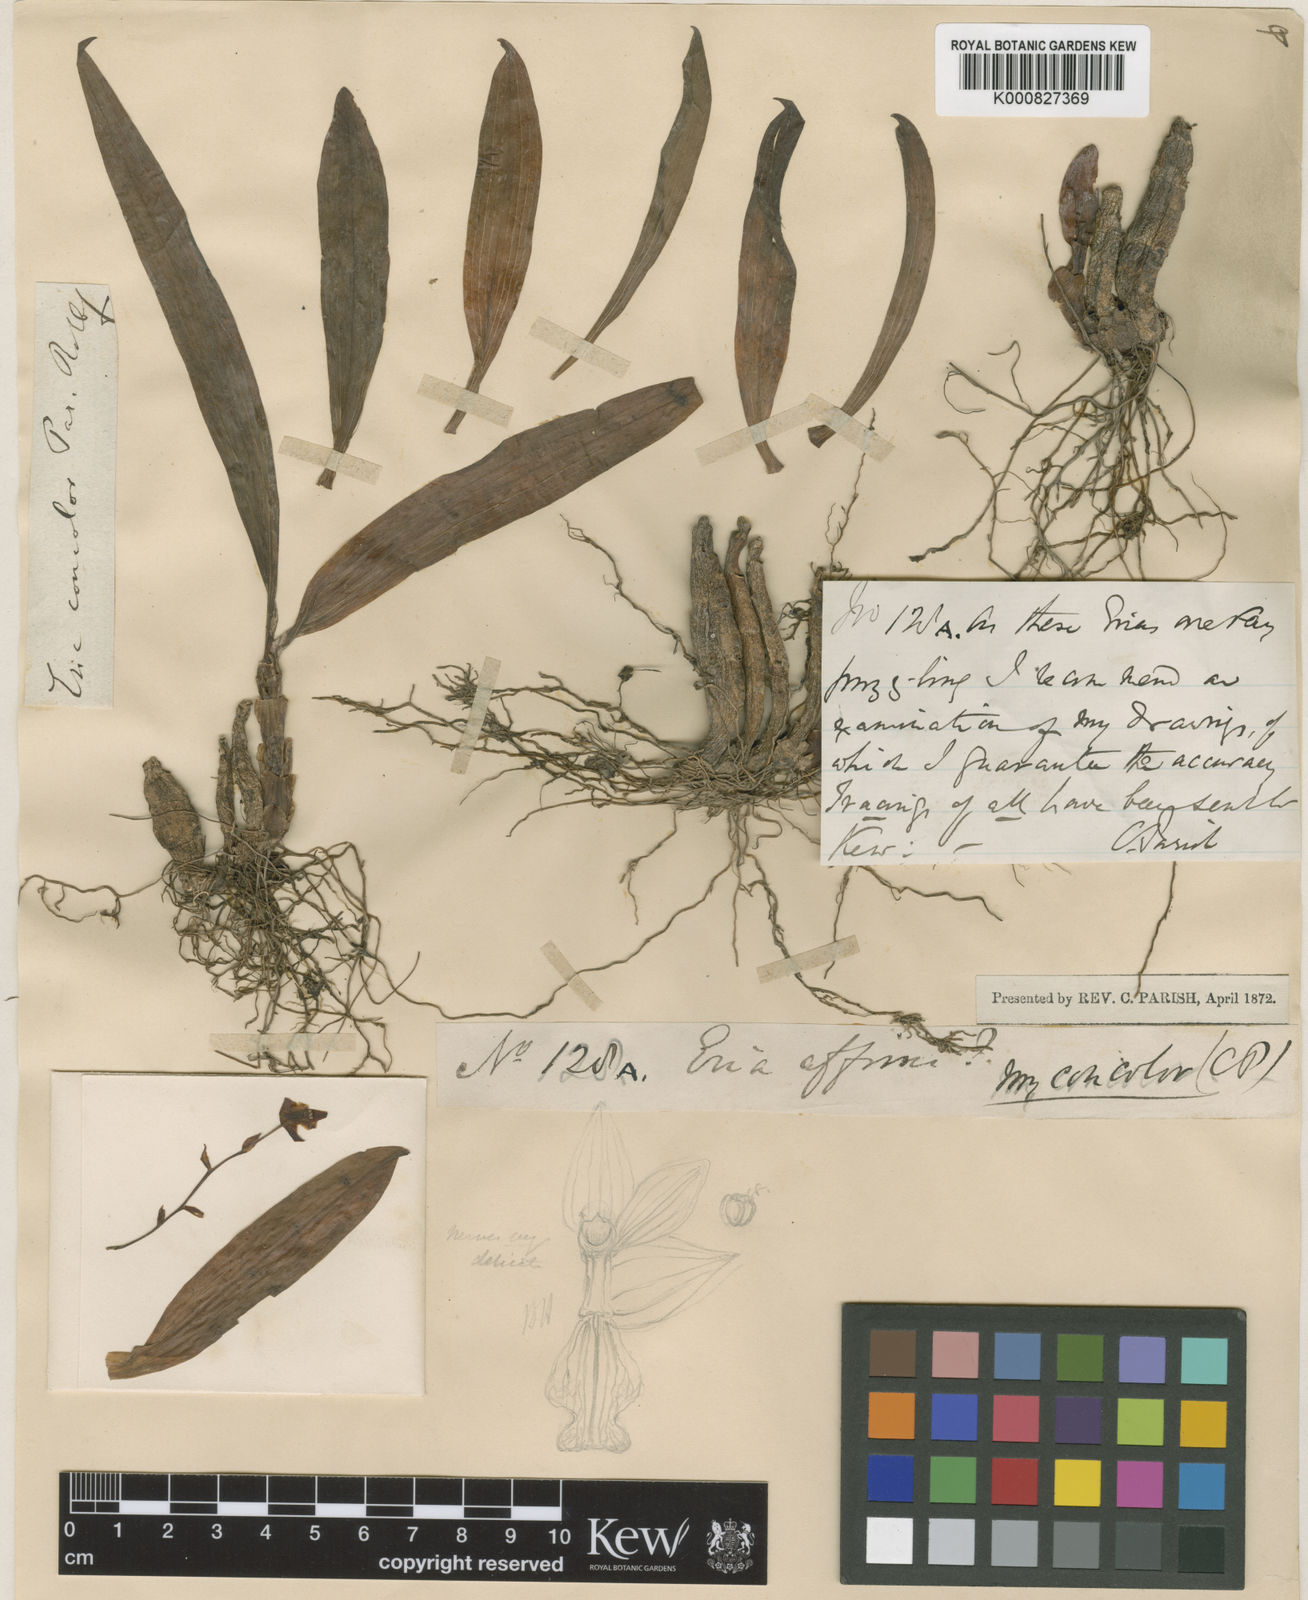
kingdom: Plantae
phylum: Tracheophyta
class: Liliopsida
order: Asparagales
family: Orchidaceae
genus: Pinalia
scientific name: Pinalia concolor
